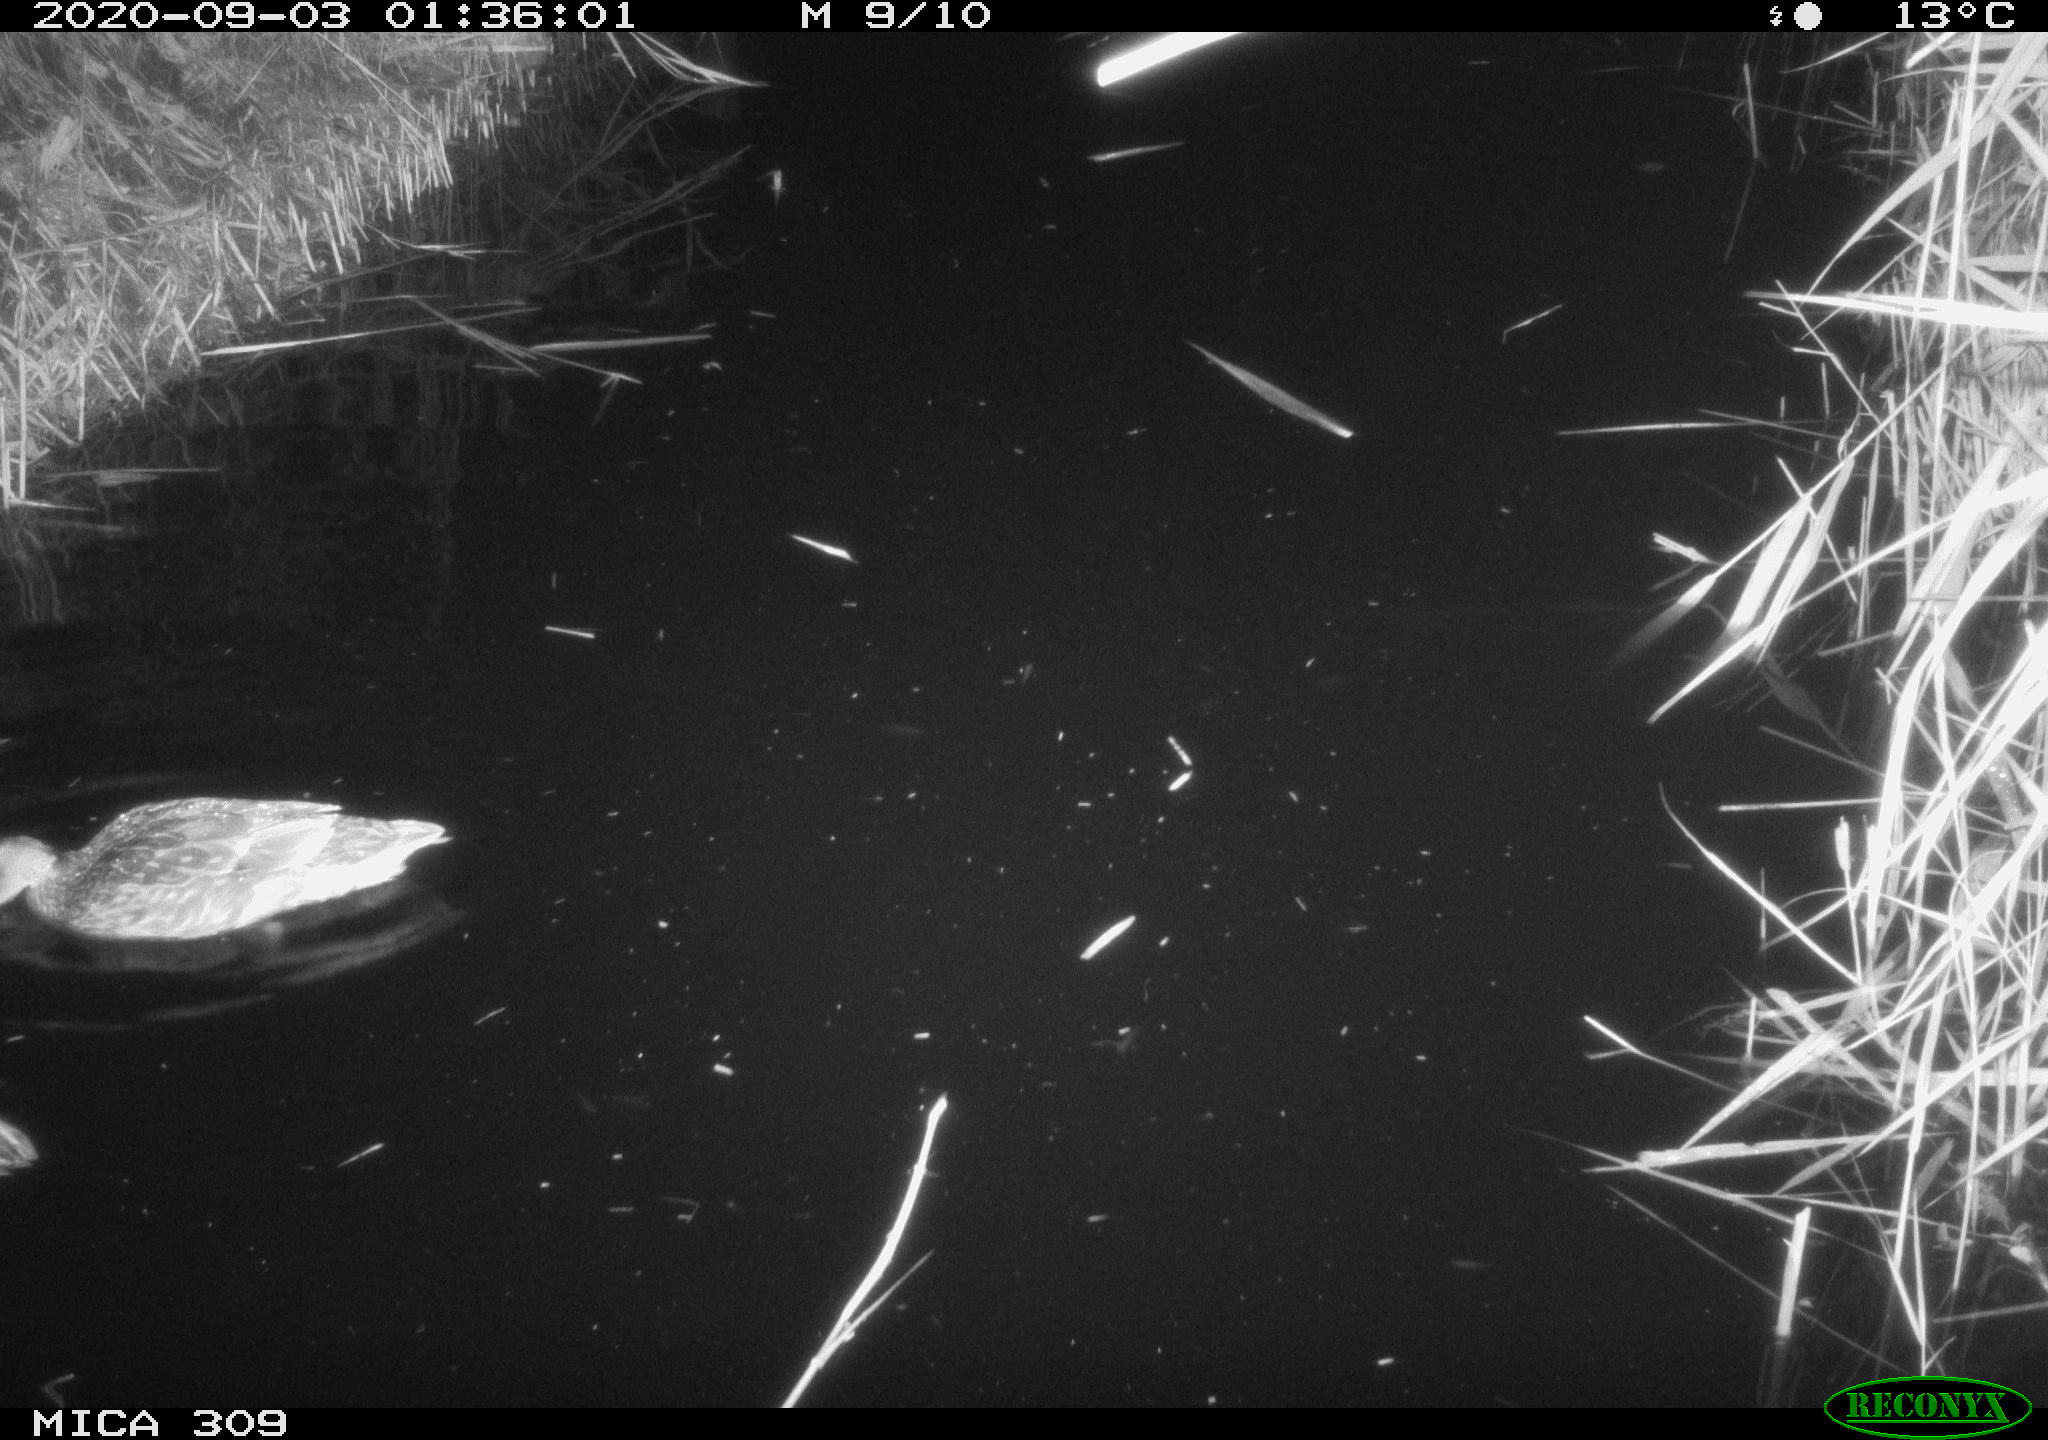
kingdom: Animalia
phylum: Chordata
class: Aves
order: Anseriformes
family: Anatidae
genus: Anas
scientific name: Anas platyrhynchos
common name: Mallard
